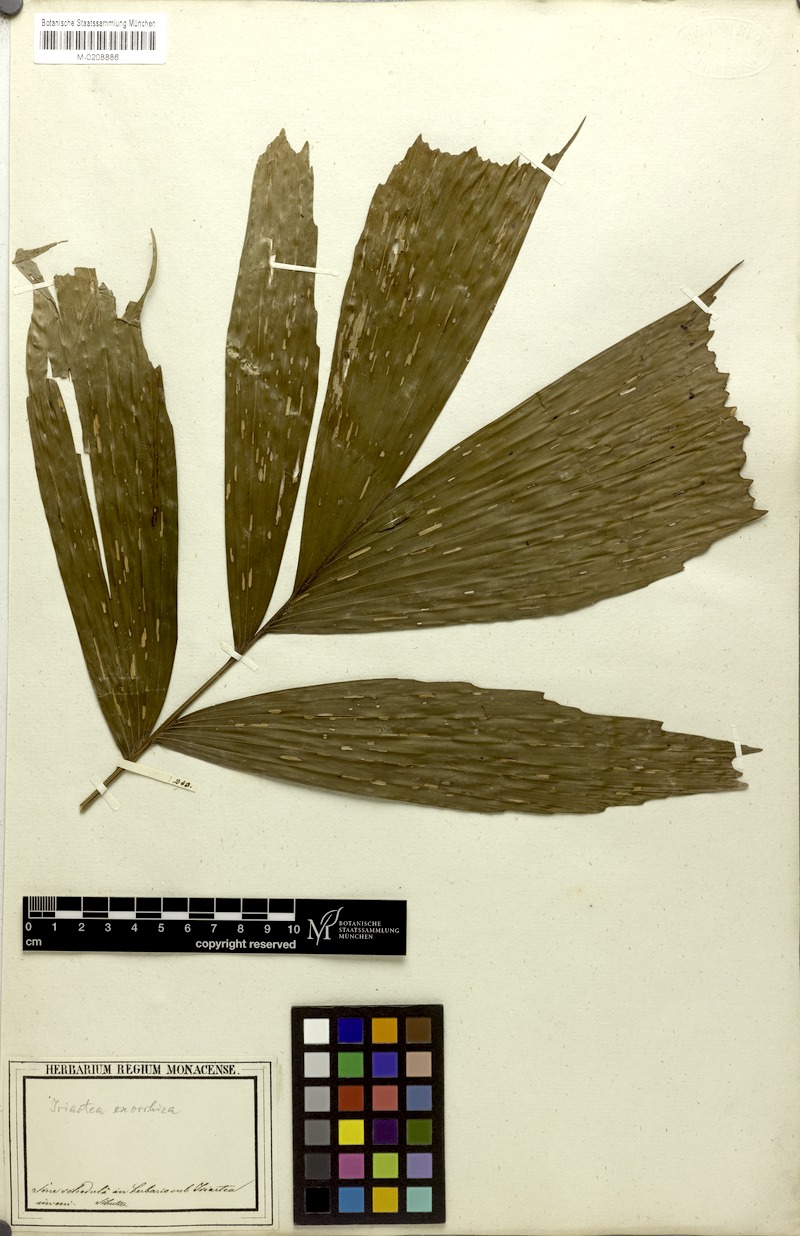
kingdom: Plantae
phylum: Tracheophyta
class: Liliopsida
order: Arecales
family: Arecaceae
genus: Socratea
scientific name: Socratea exorrhiza
